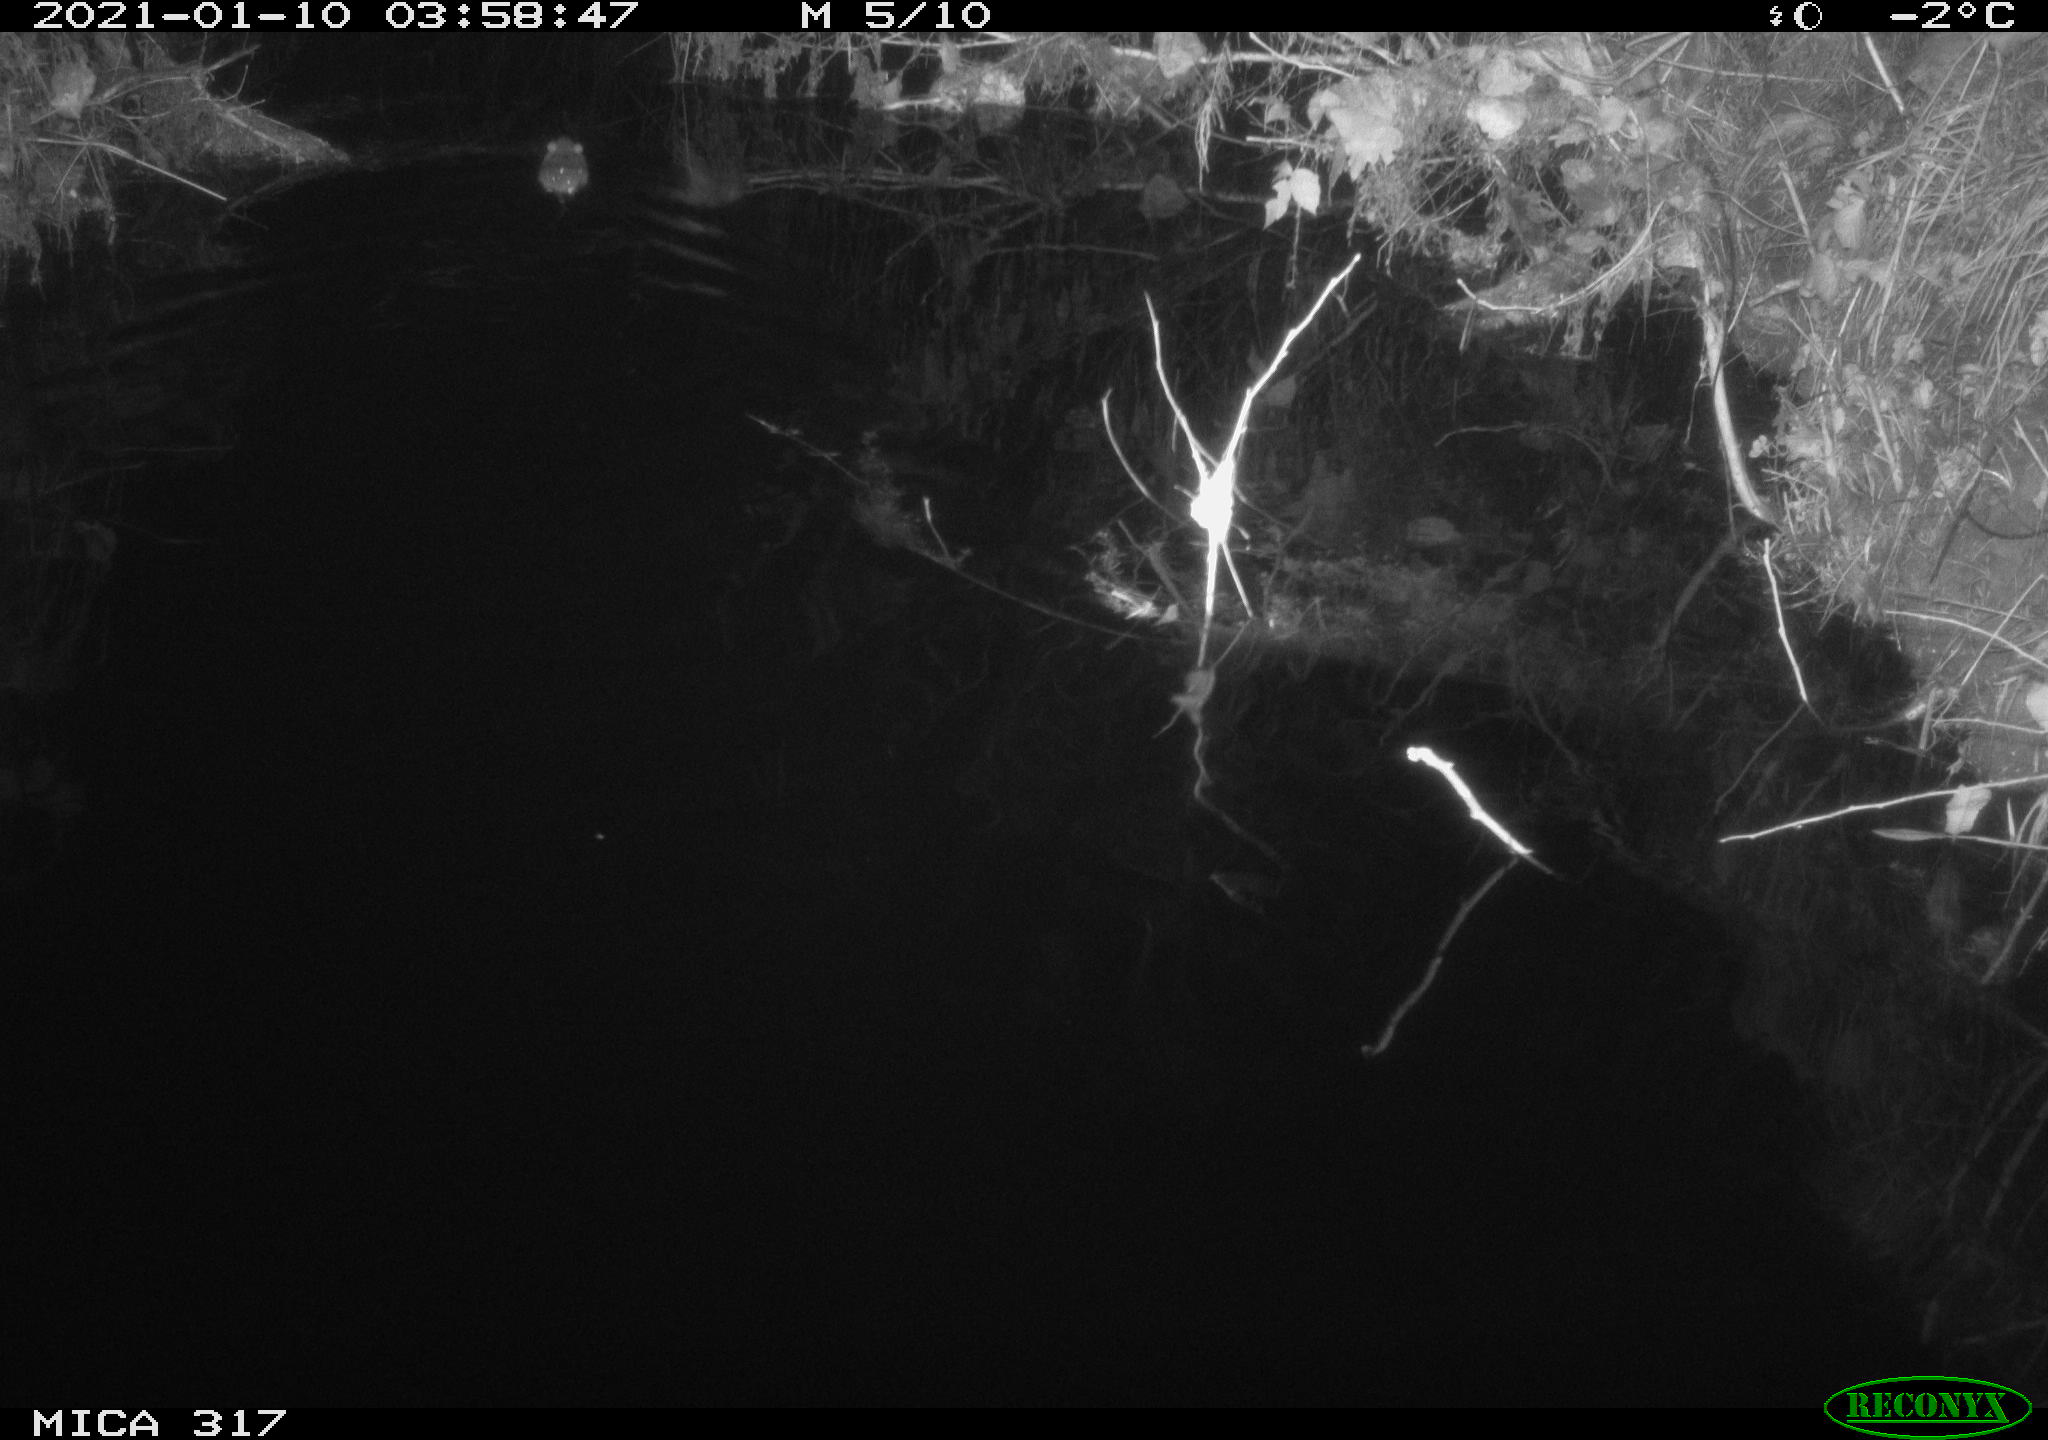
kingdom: Animalia
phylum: Chordata
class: Mammalia
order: Rodentia
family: Muridae
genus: Rattus
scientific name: Rattus norvegicus
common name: Brown rat
